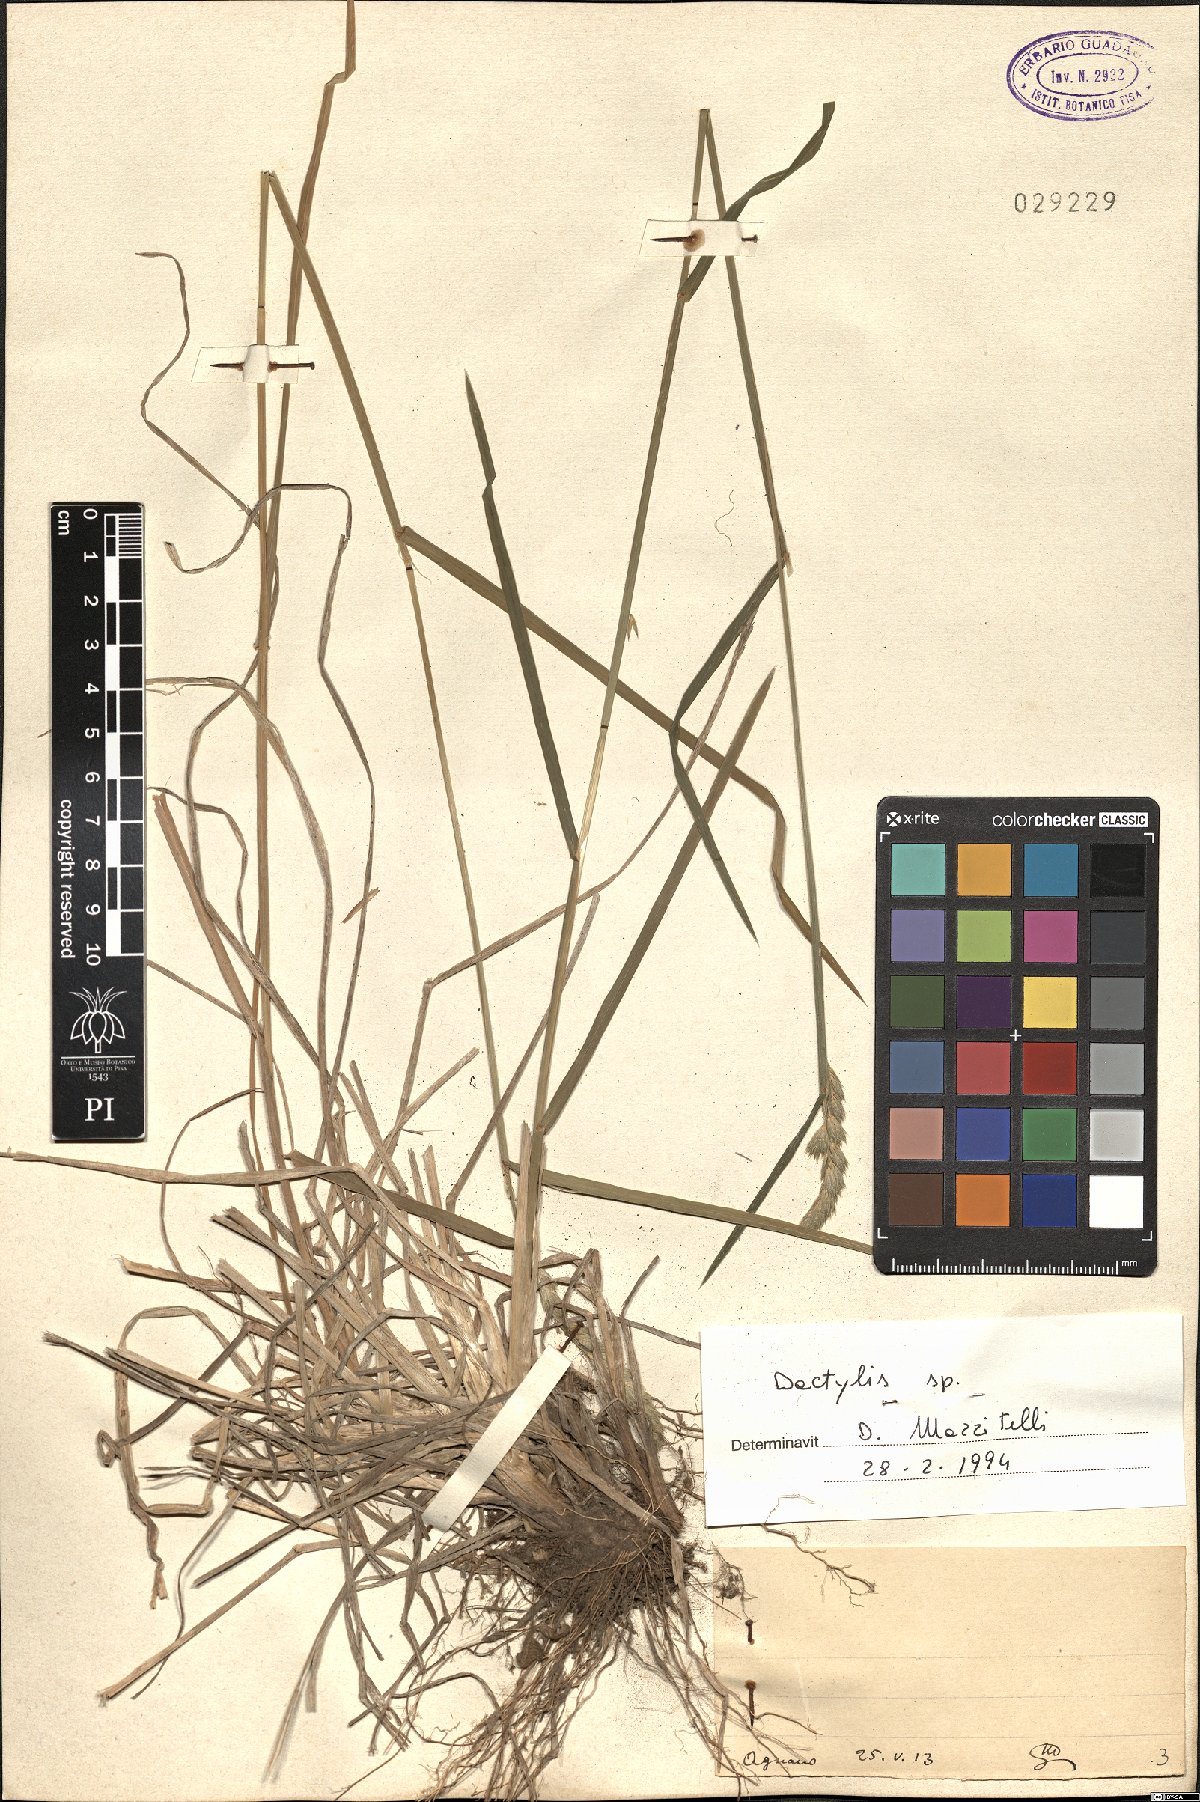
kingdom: Plantae
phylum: Tracheophyta
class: Liliopsida
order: Poales
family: Poaceae
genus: Dactylis
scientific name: Dactylis
